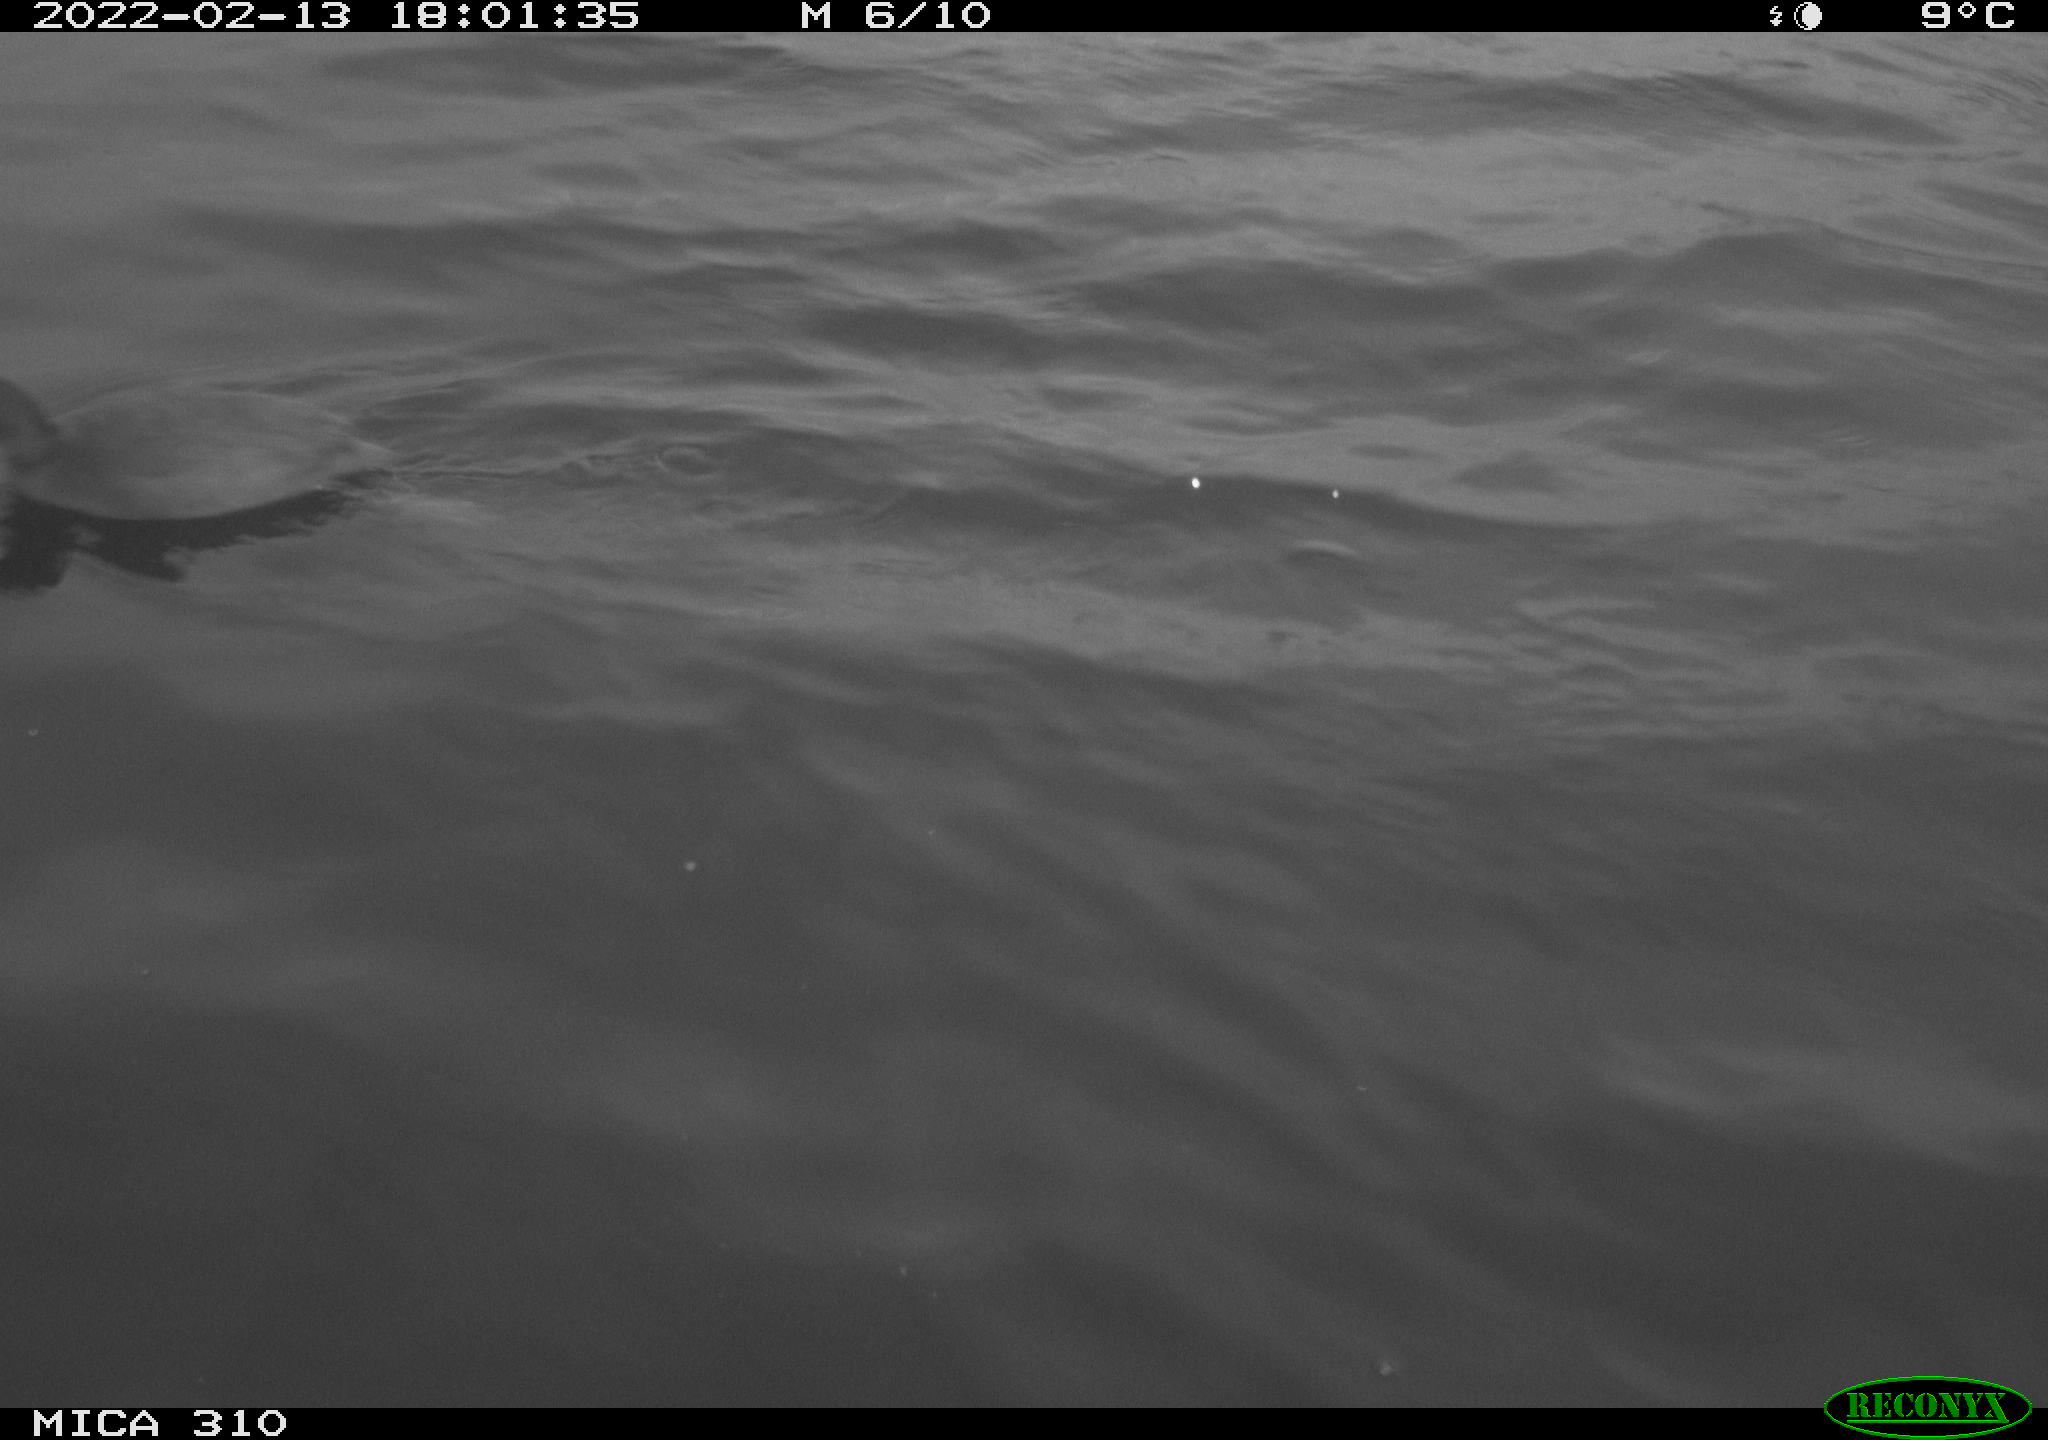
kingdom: Animalia
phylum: Chordata
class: Aves
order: Gruiformes
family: Rallidae
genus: Fulica
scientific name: Fulica atra
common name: Eurasian coot
